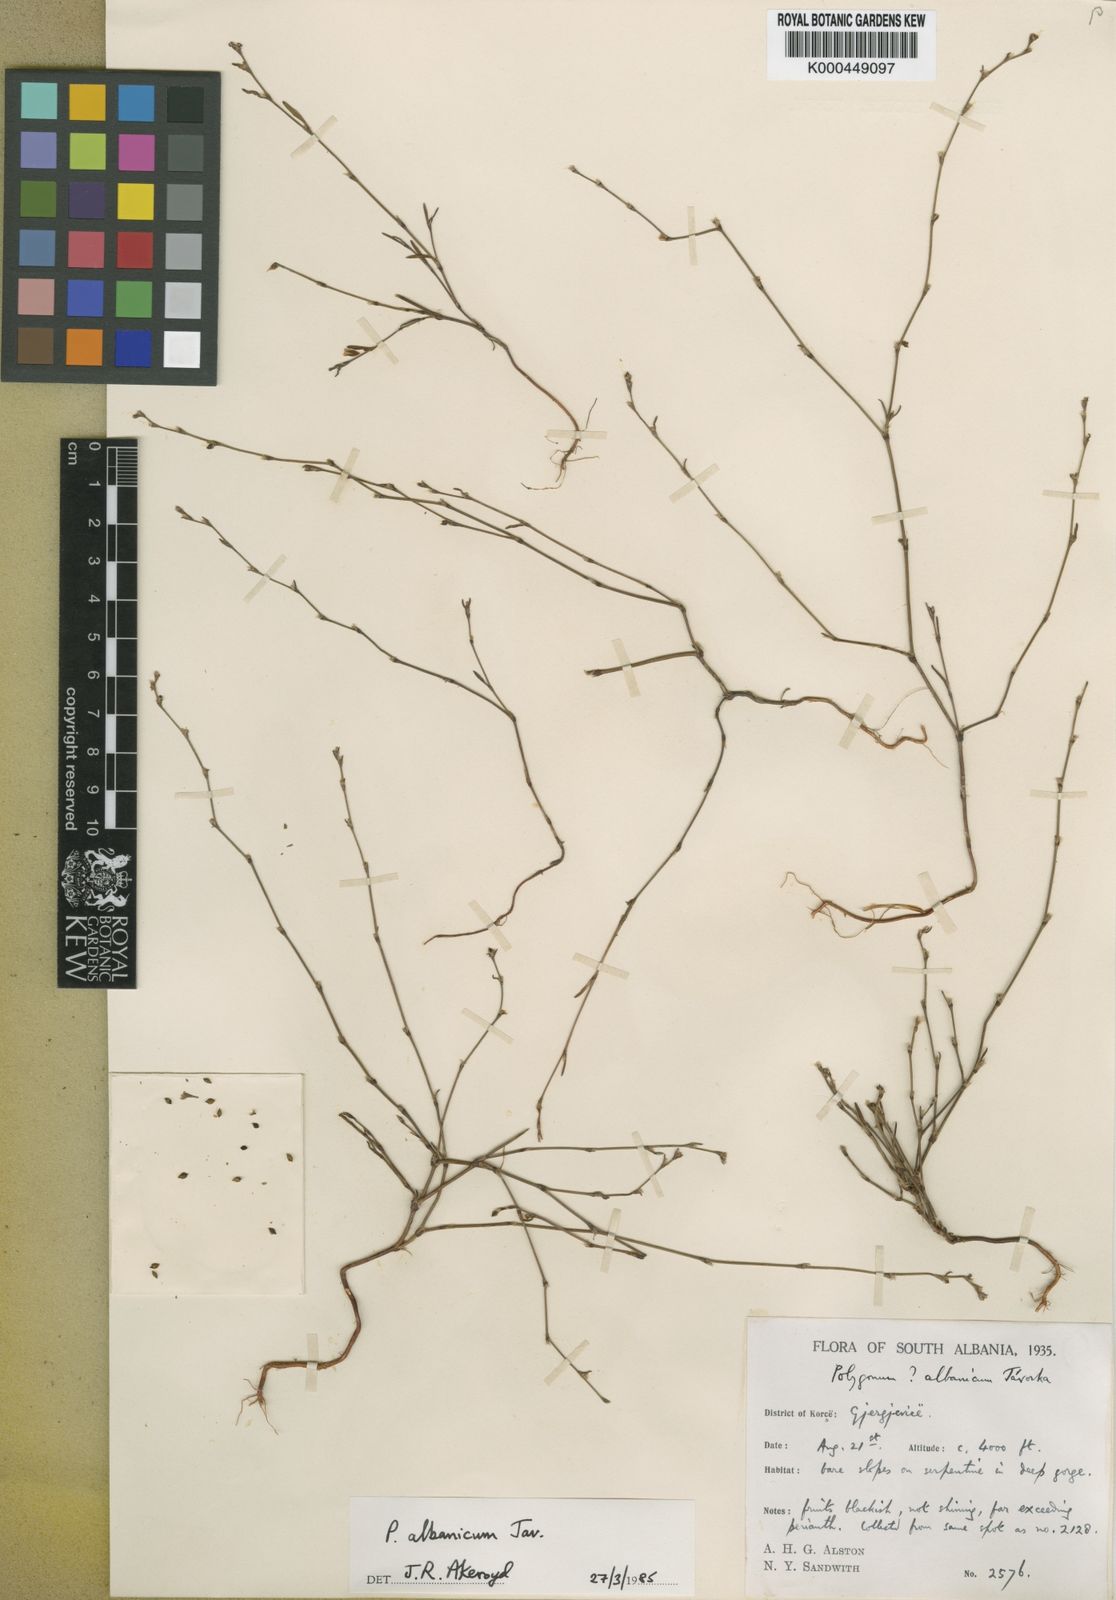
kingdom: Plantae
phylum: Tracheophyta
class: Magnoliopsida
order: Caryophyllales
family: Polygonaceae
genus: Polygonum
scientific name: Polygonum albanicum
